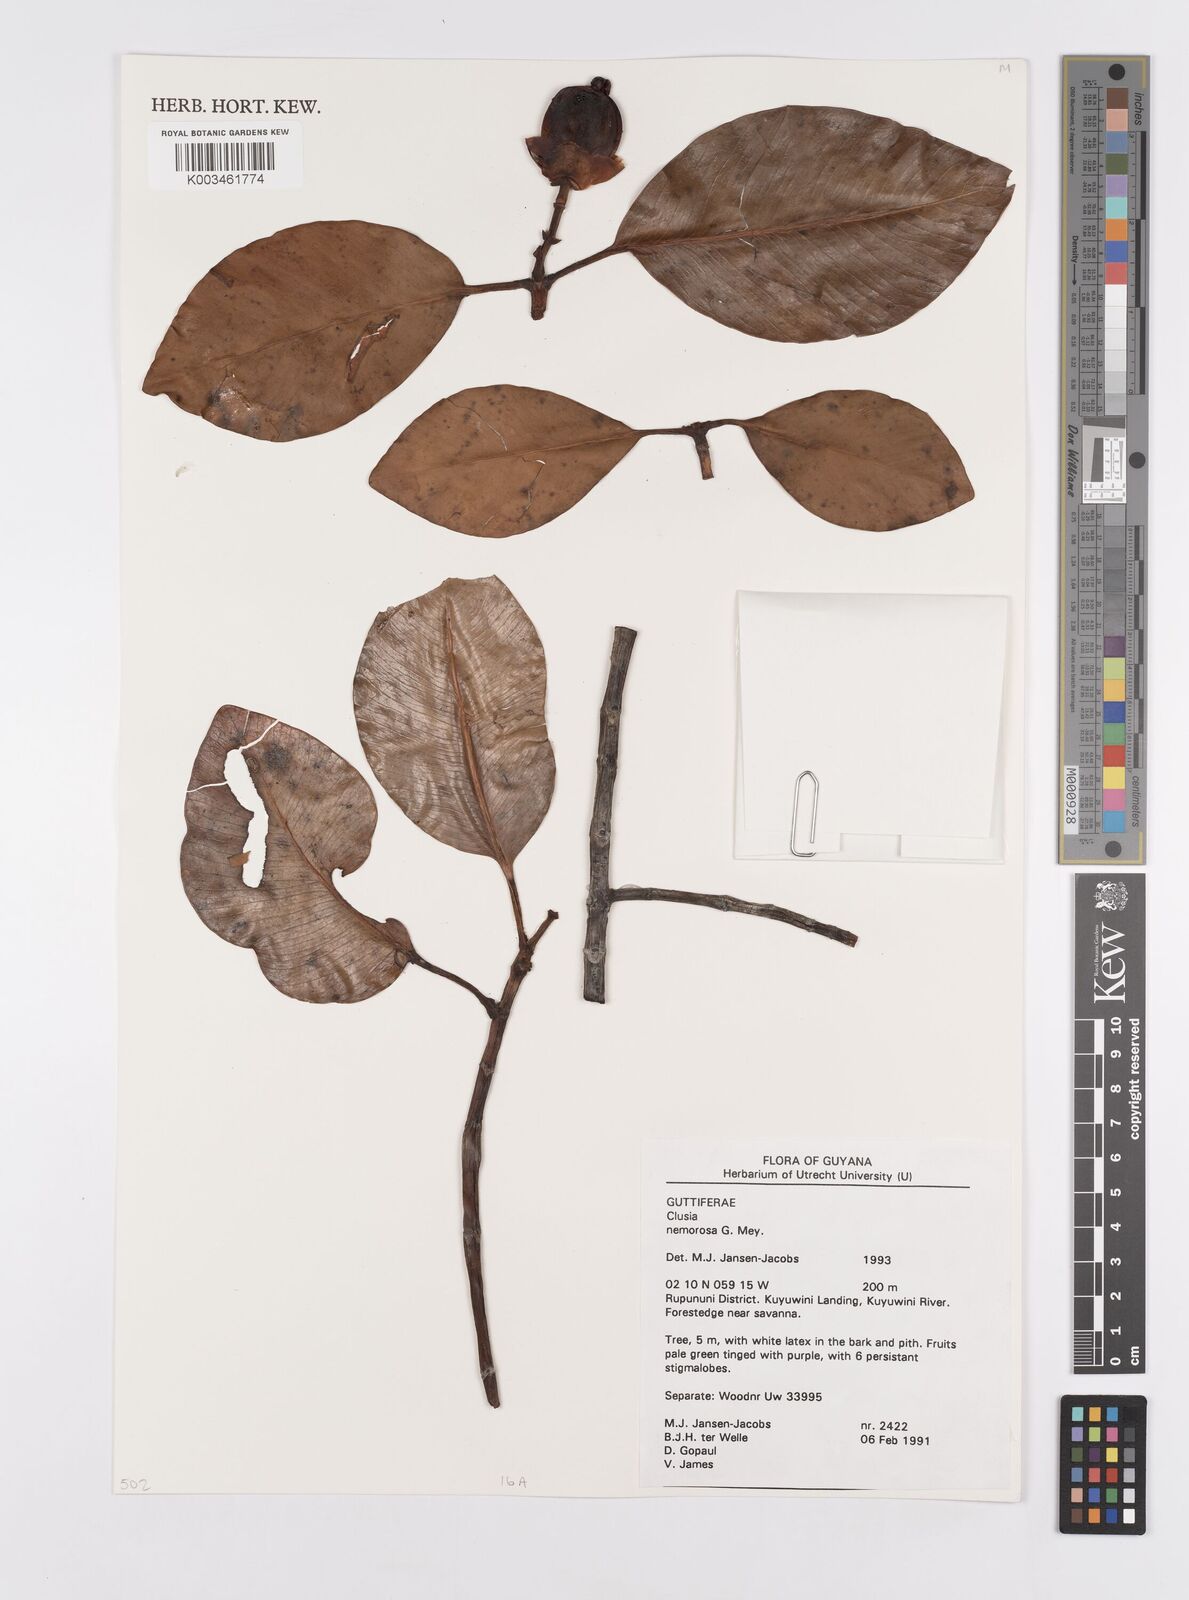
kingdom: Plantae
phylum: Tracheophyta
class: Magnoliopsida
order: Malpighiales
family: Clusiaceae
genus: Clusia
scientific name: Clusia nemorosa
